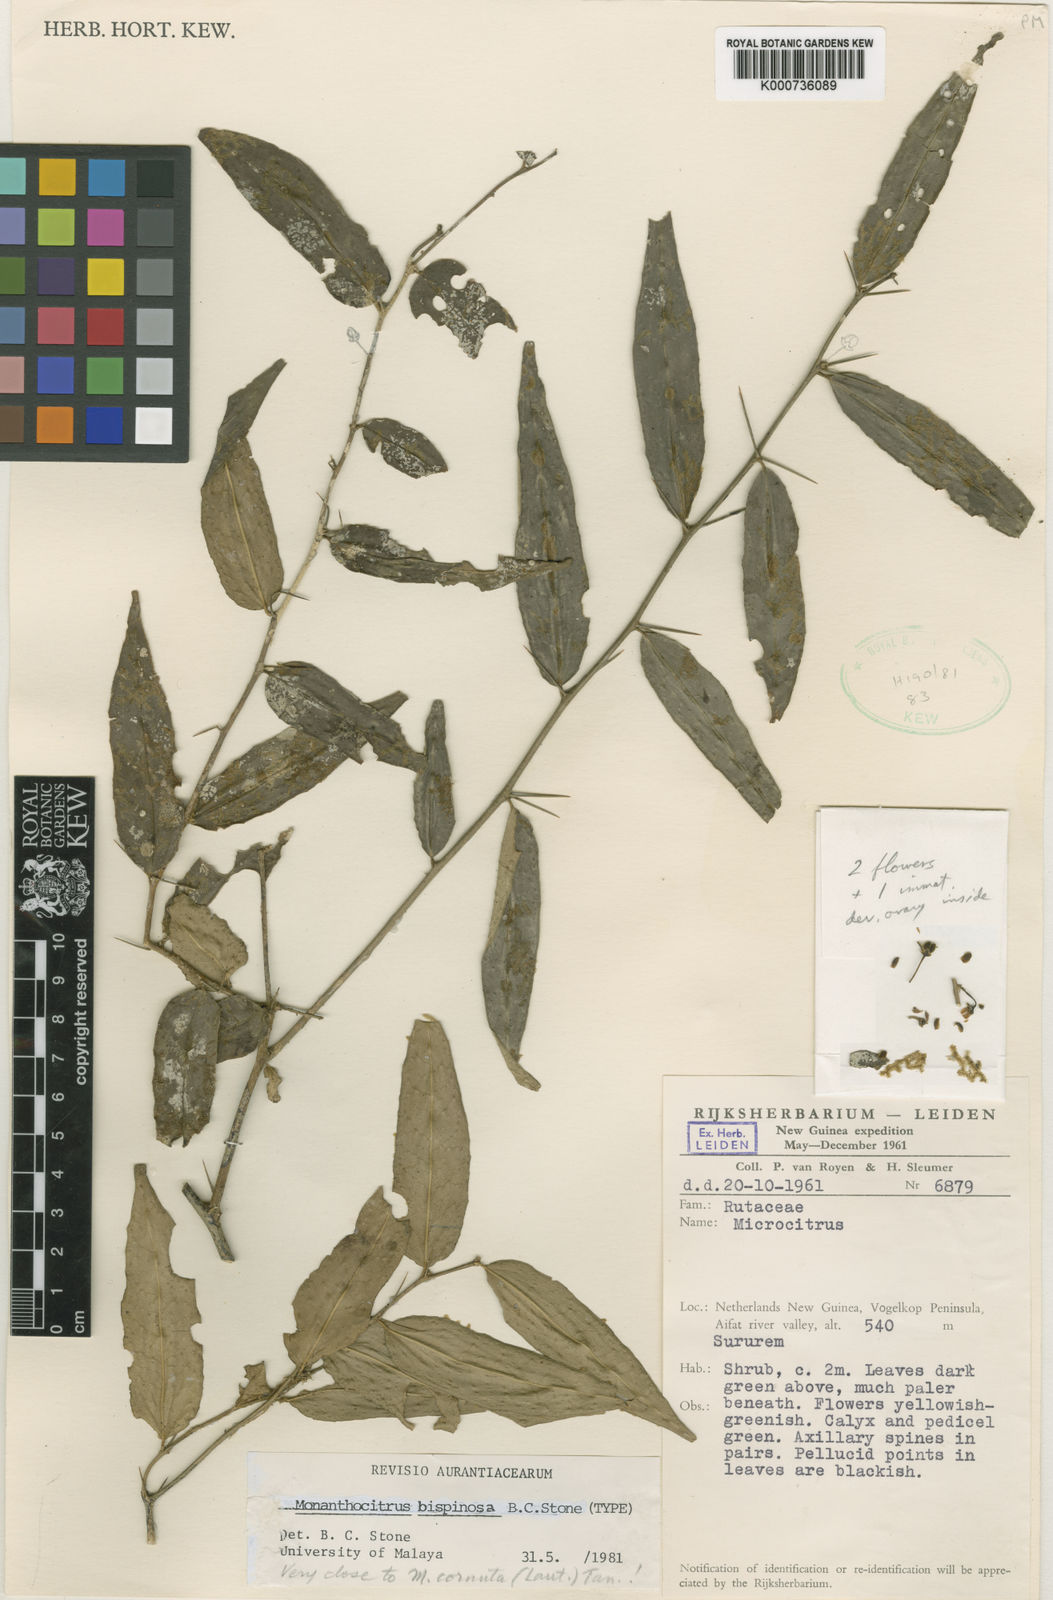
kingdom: Plantae
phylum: Tracheophyta
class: Magnoliopsida
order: Sapindales
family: Rutaceae
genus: Monanthocitrus
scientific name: Monanthocitrus bispinosa
